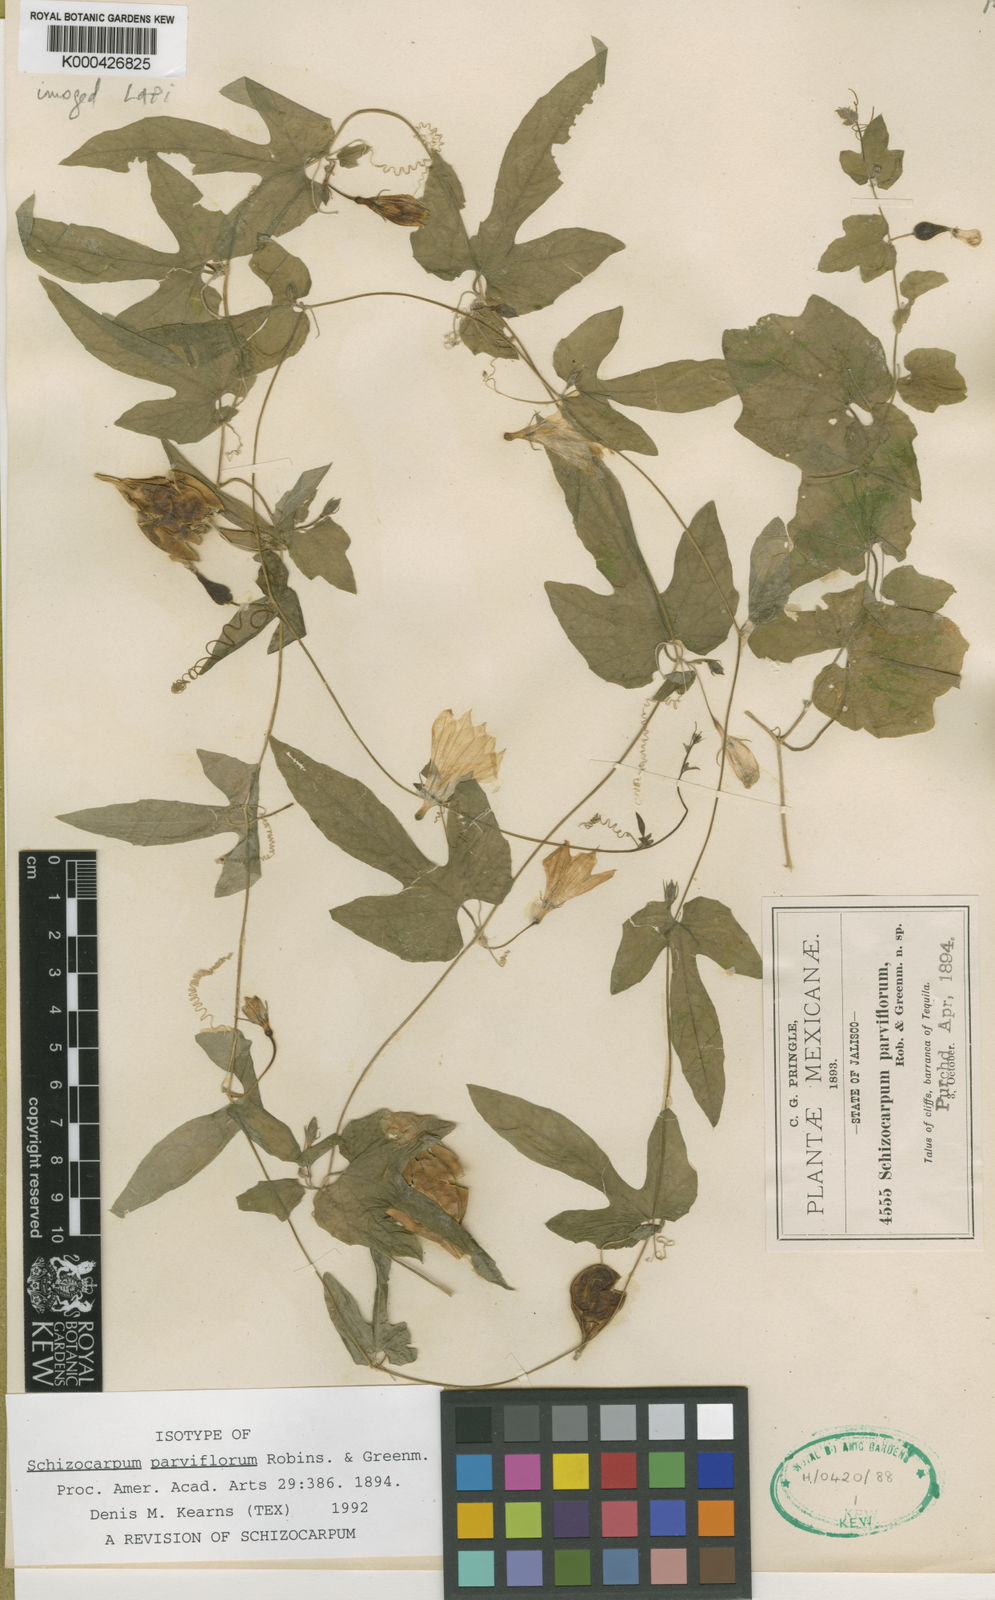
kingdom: Plantae
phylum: Tracheophyta
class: Magnoliopsida
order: Cucurbitales
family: Cucurbitaceae
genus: Schizocarpum
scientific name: Schizocarpum parviflorum
